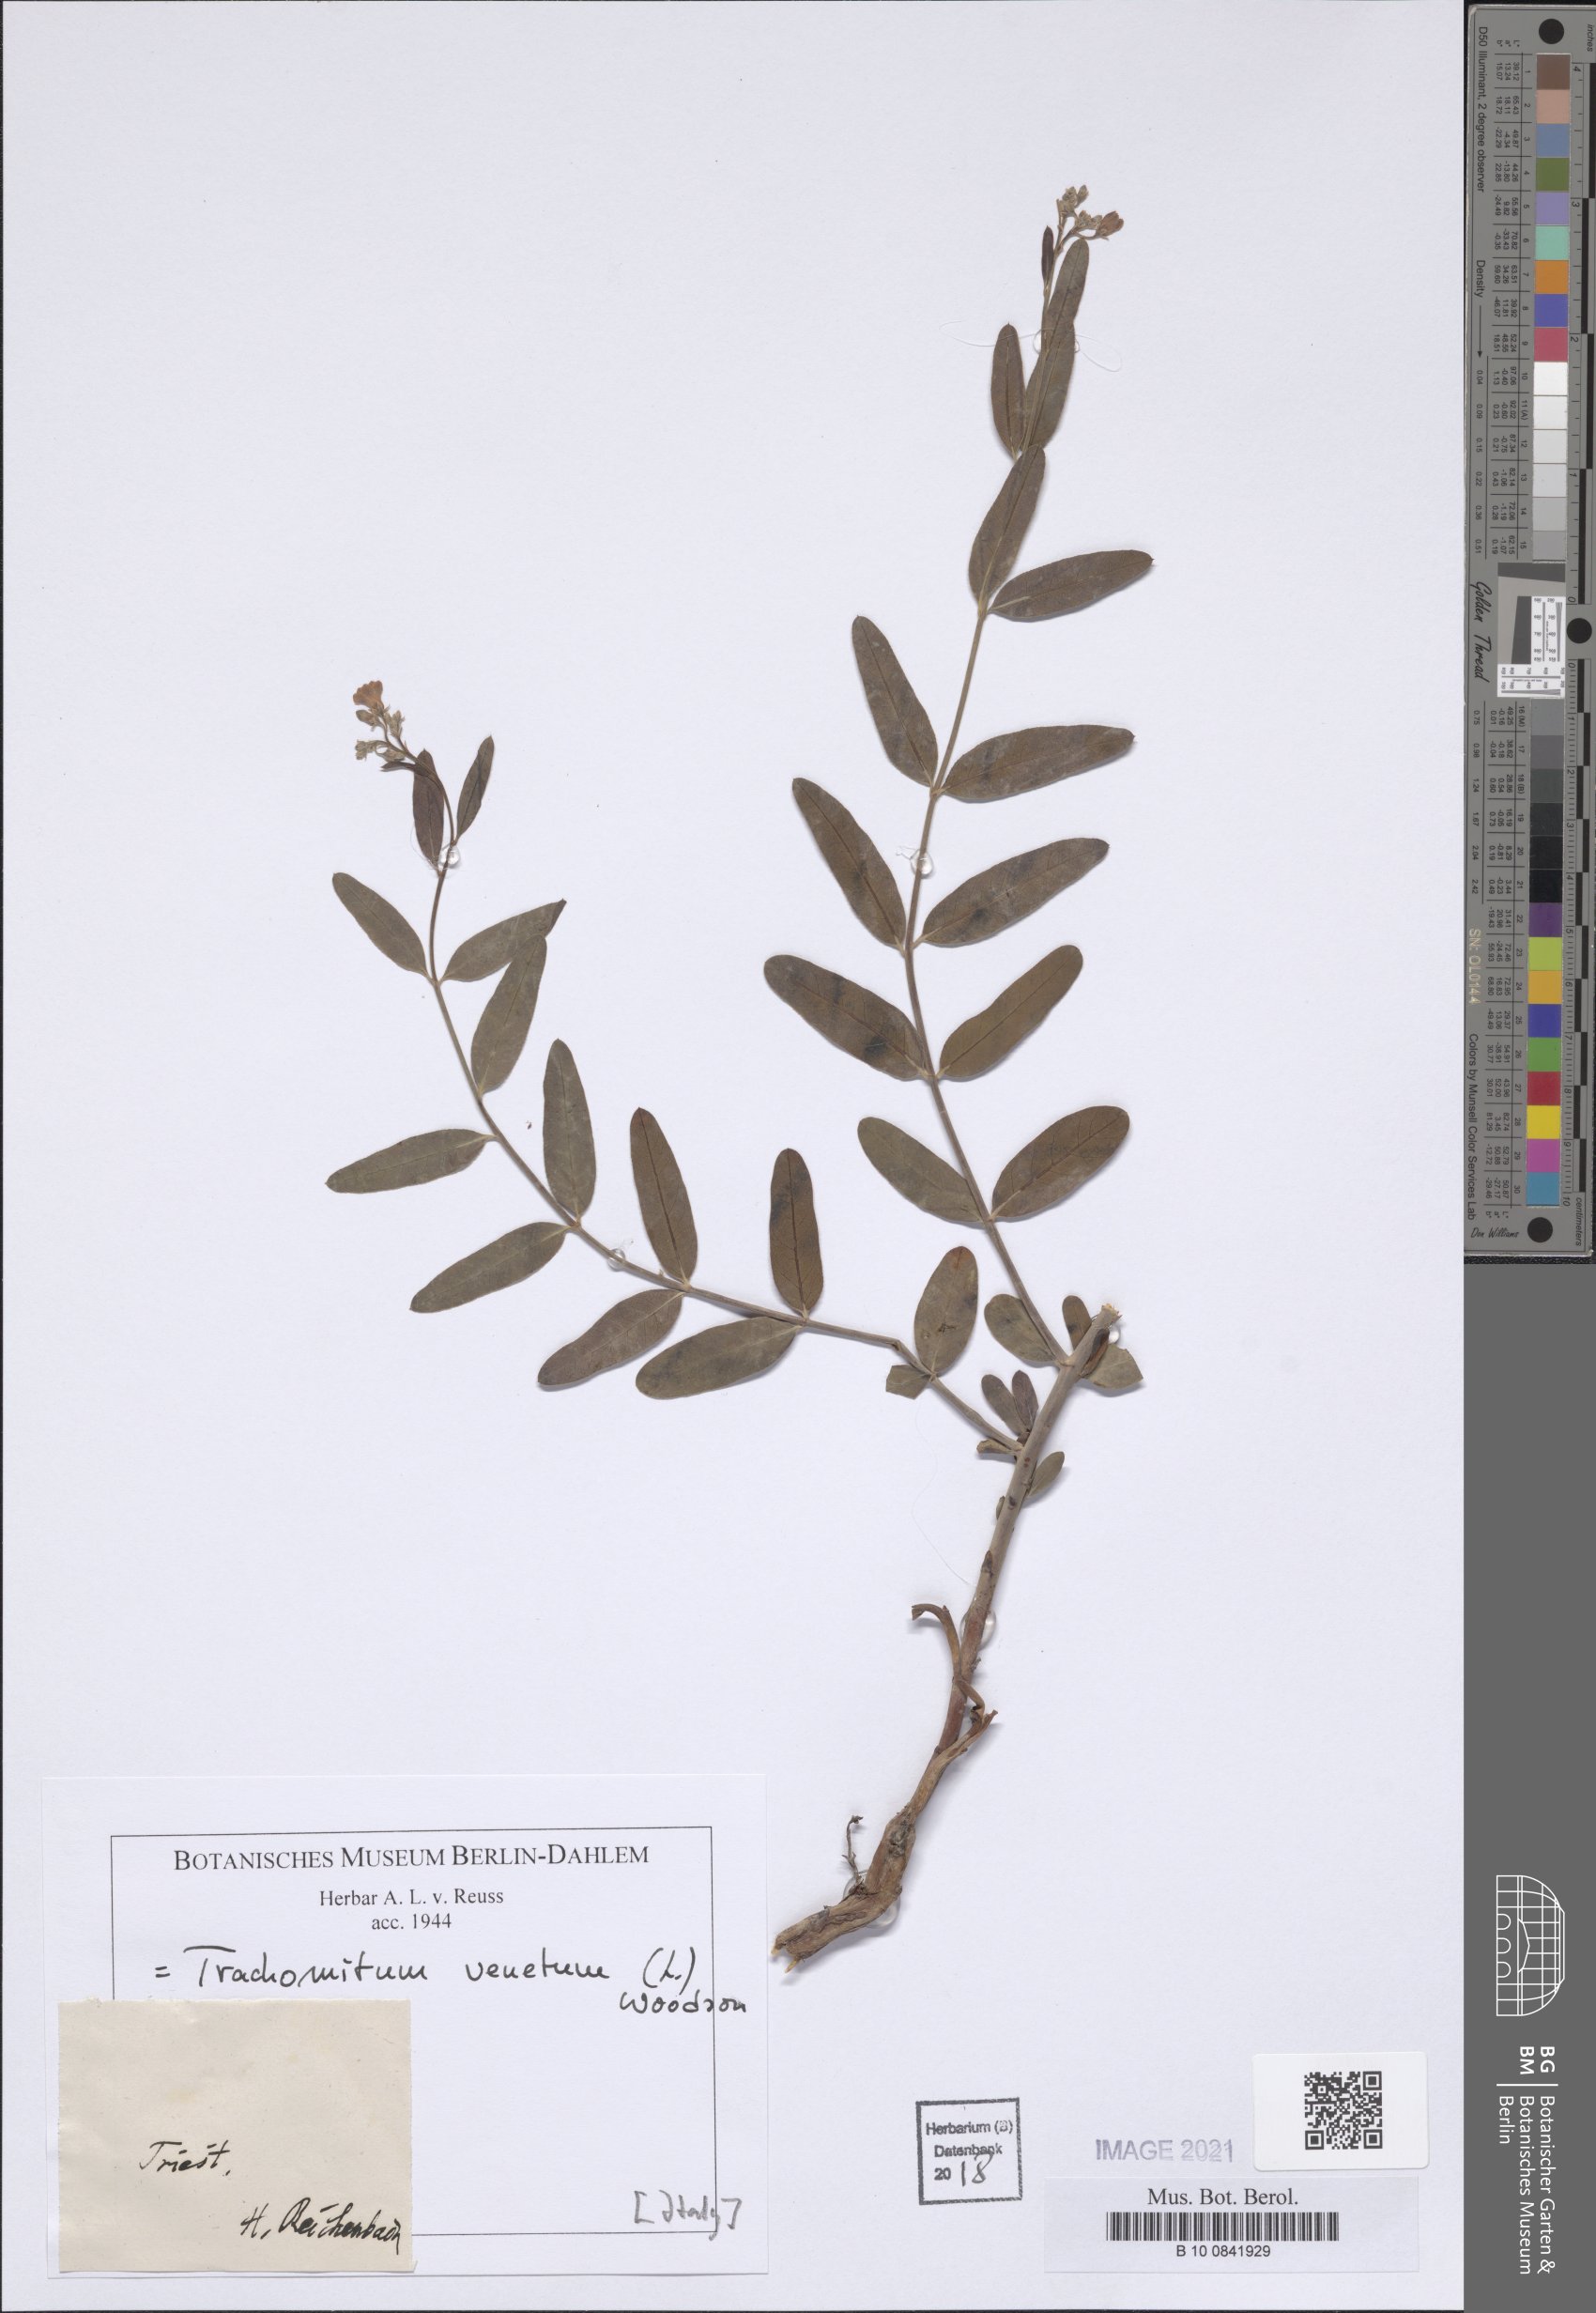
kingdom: Plantae
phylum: Tracheophyta
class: Magnoliopsida
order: Gentianales
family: Apocynaceae
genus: Poacynum
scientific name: Poacynum venetum
